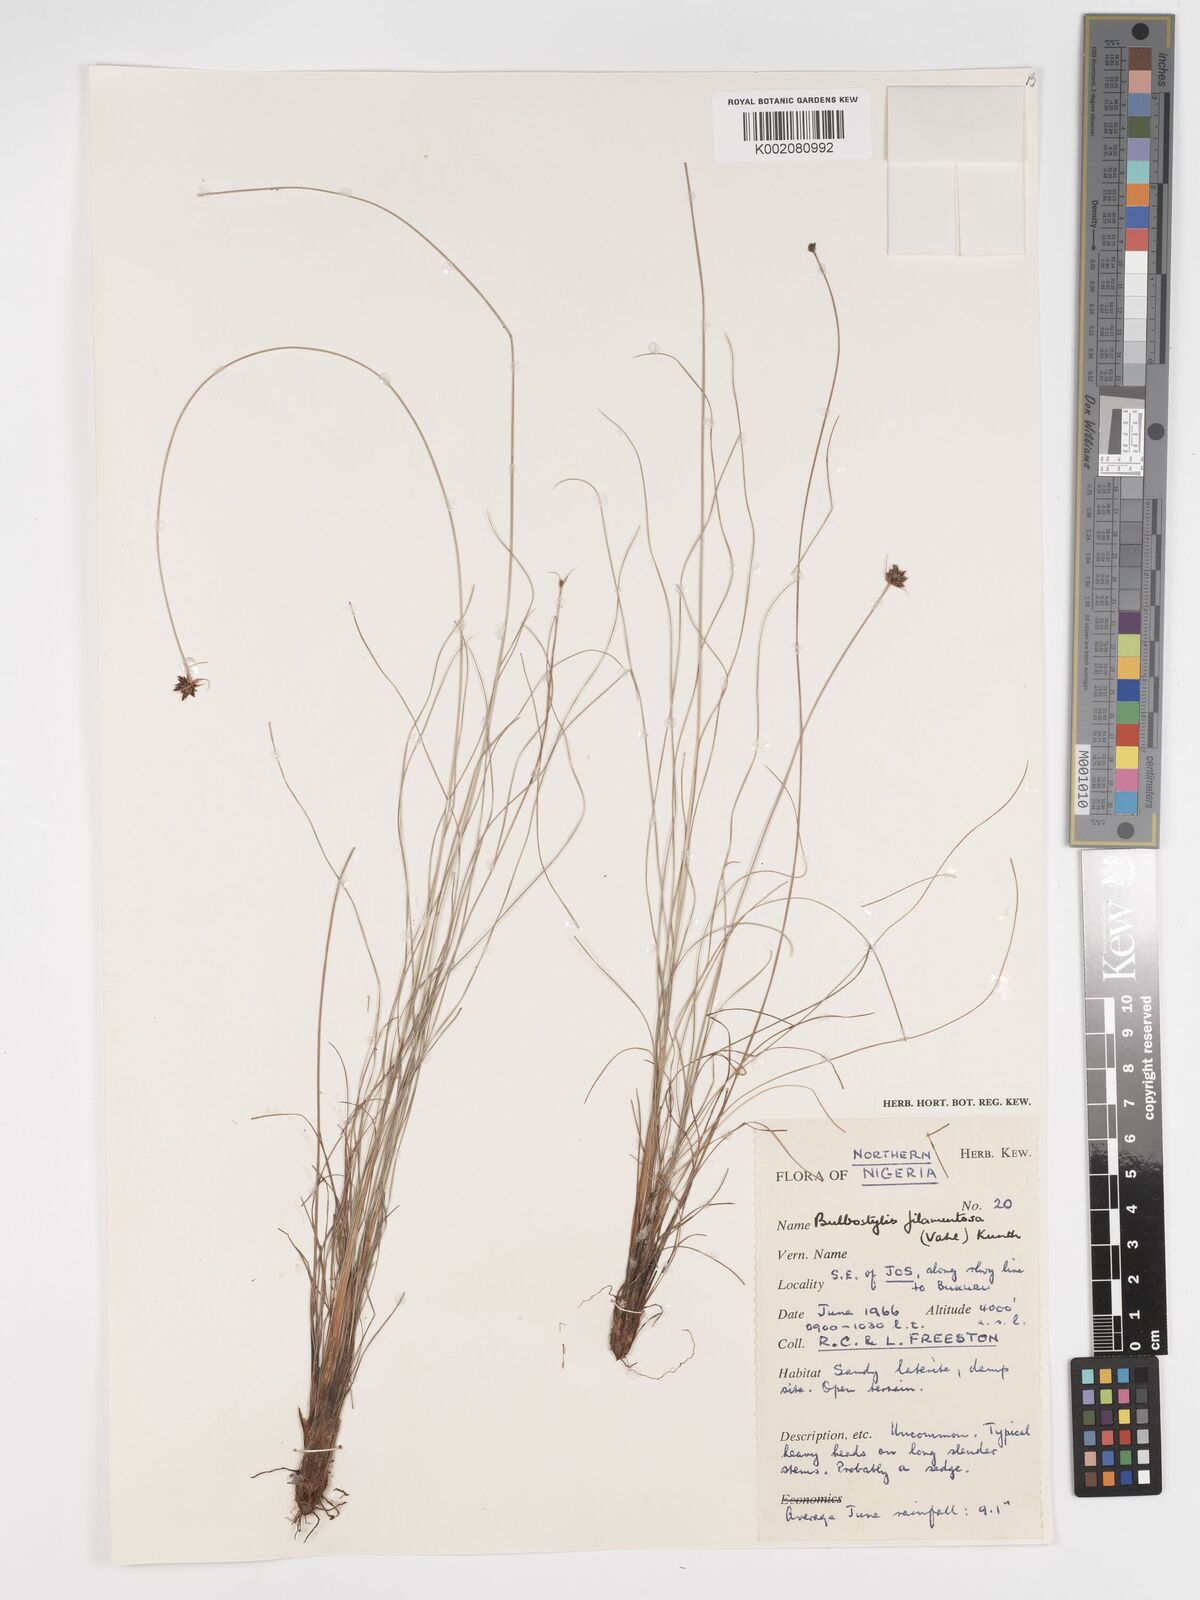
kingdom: Plantae
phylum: Tracheophyta
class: Liliopsida
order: Poales
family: Cyperaceae
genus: Bulbostylis
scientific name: Bulbostylis filamentosa
